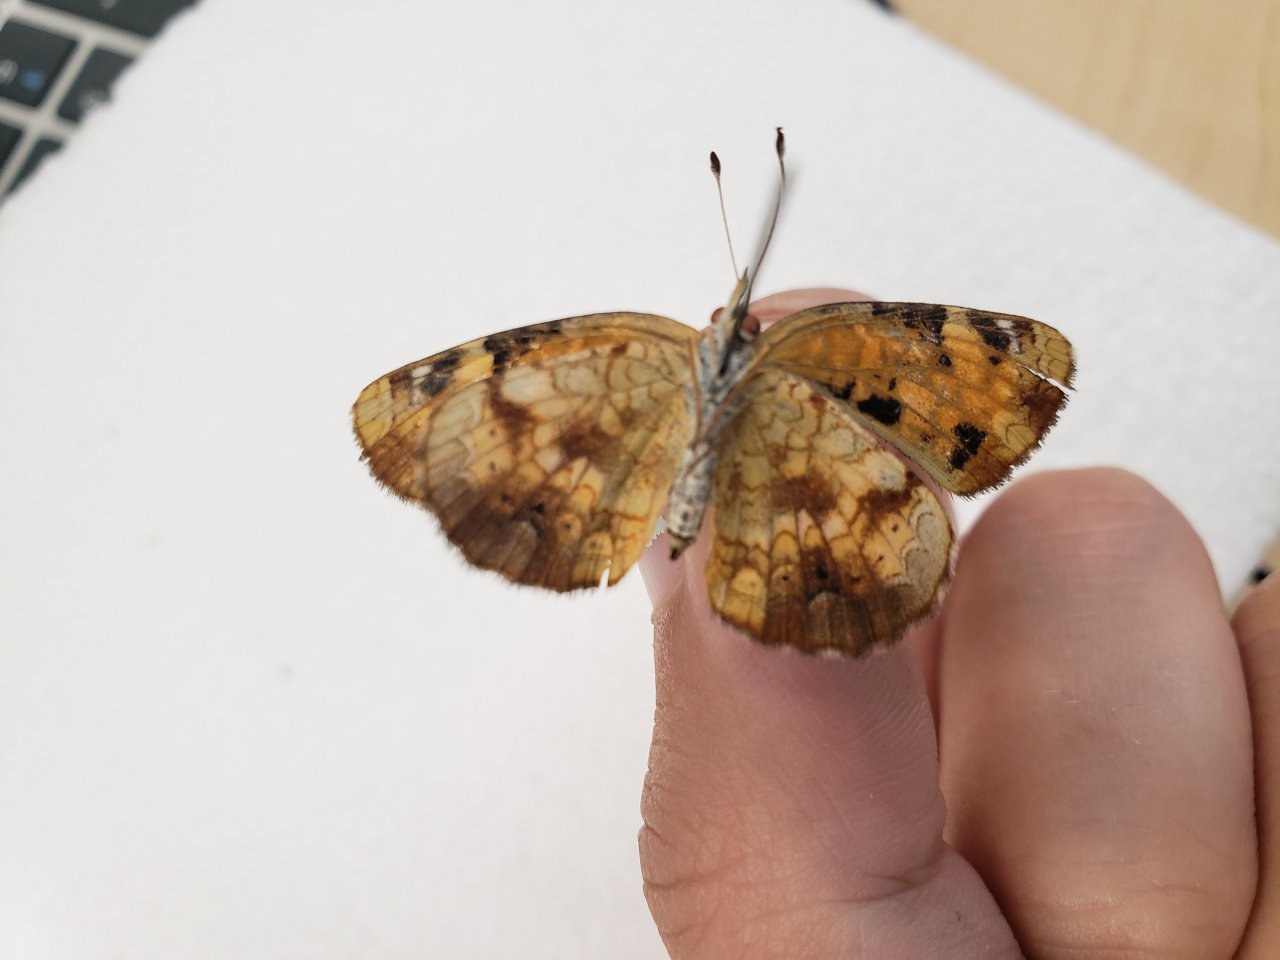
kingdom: Animalia
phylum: Arthropoda
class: Insecta
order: Lepidoptera
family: Nymphalidae
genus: Phyciodes
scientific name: Phyciodes tharos
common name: Northern Crescent
